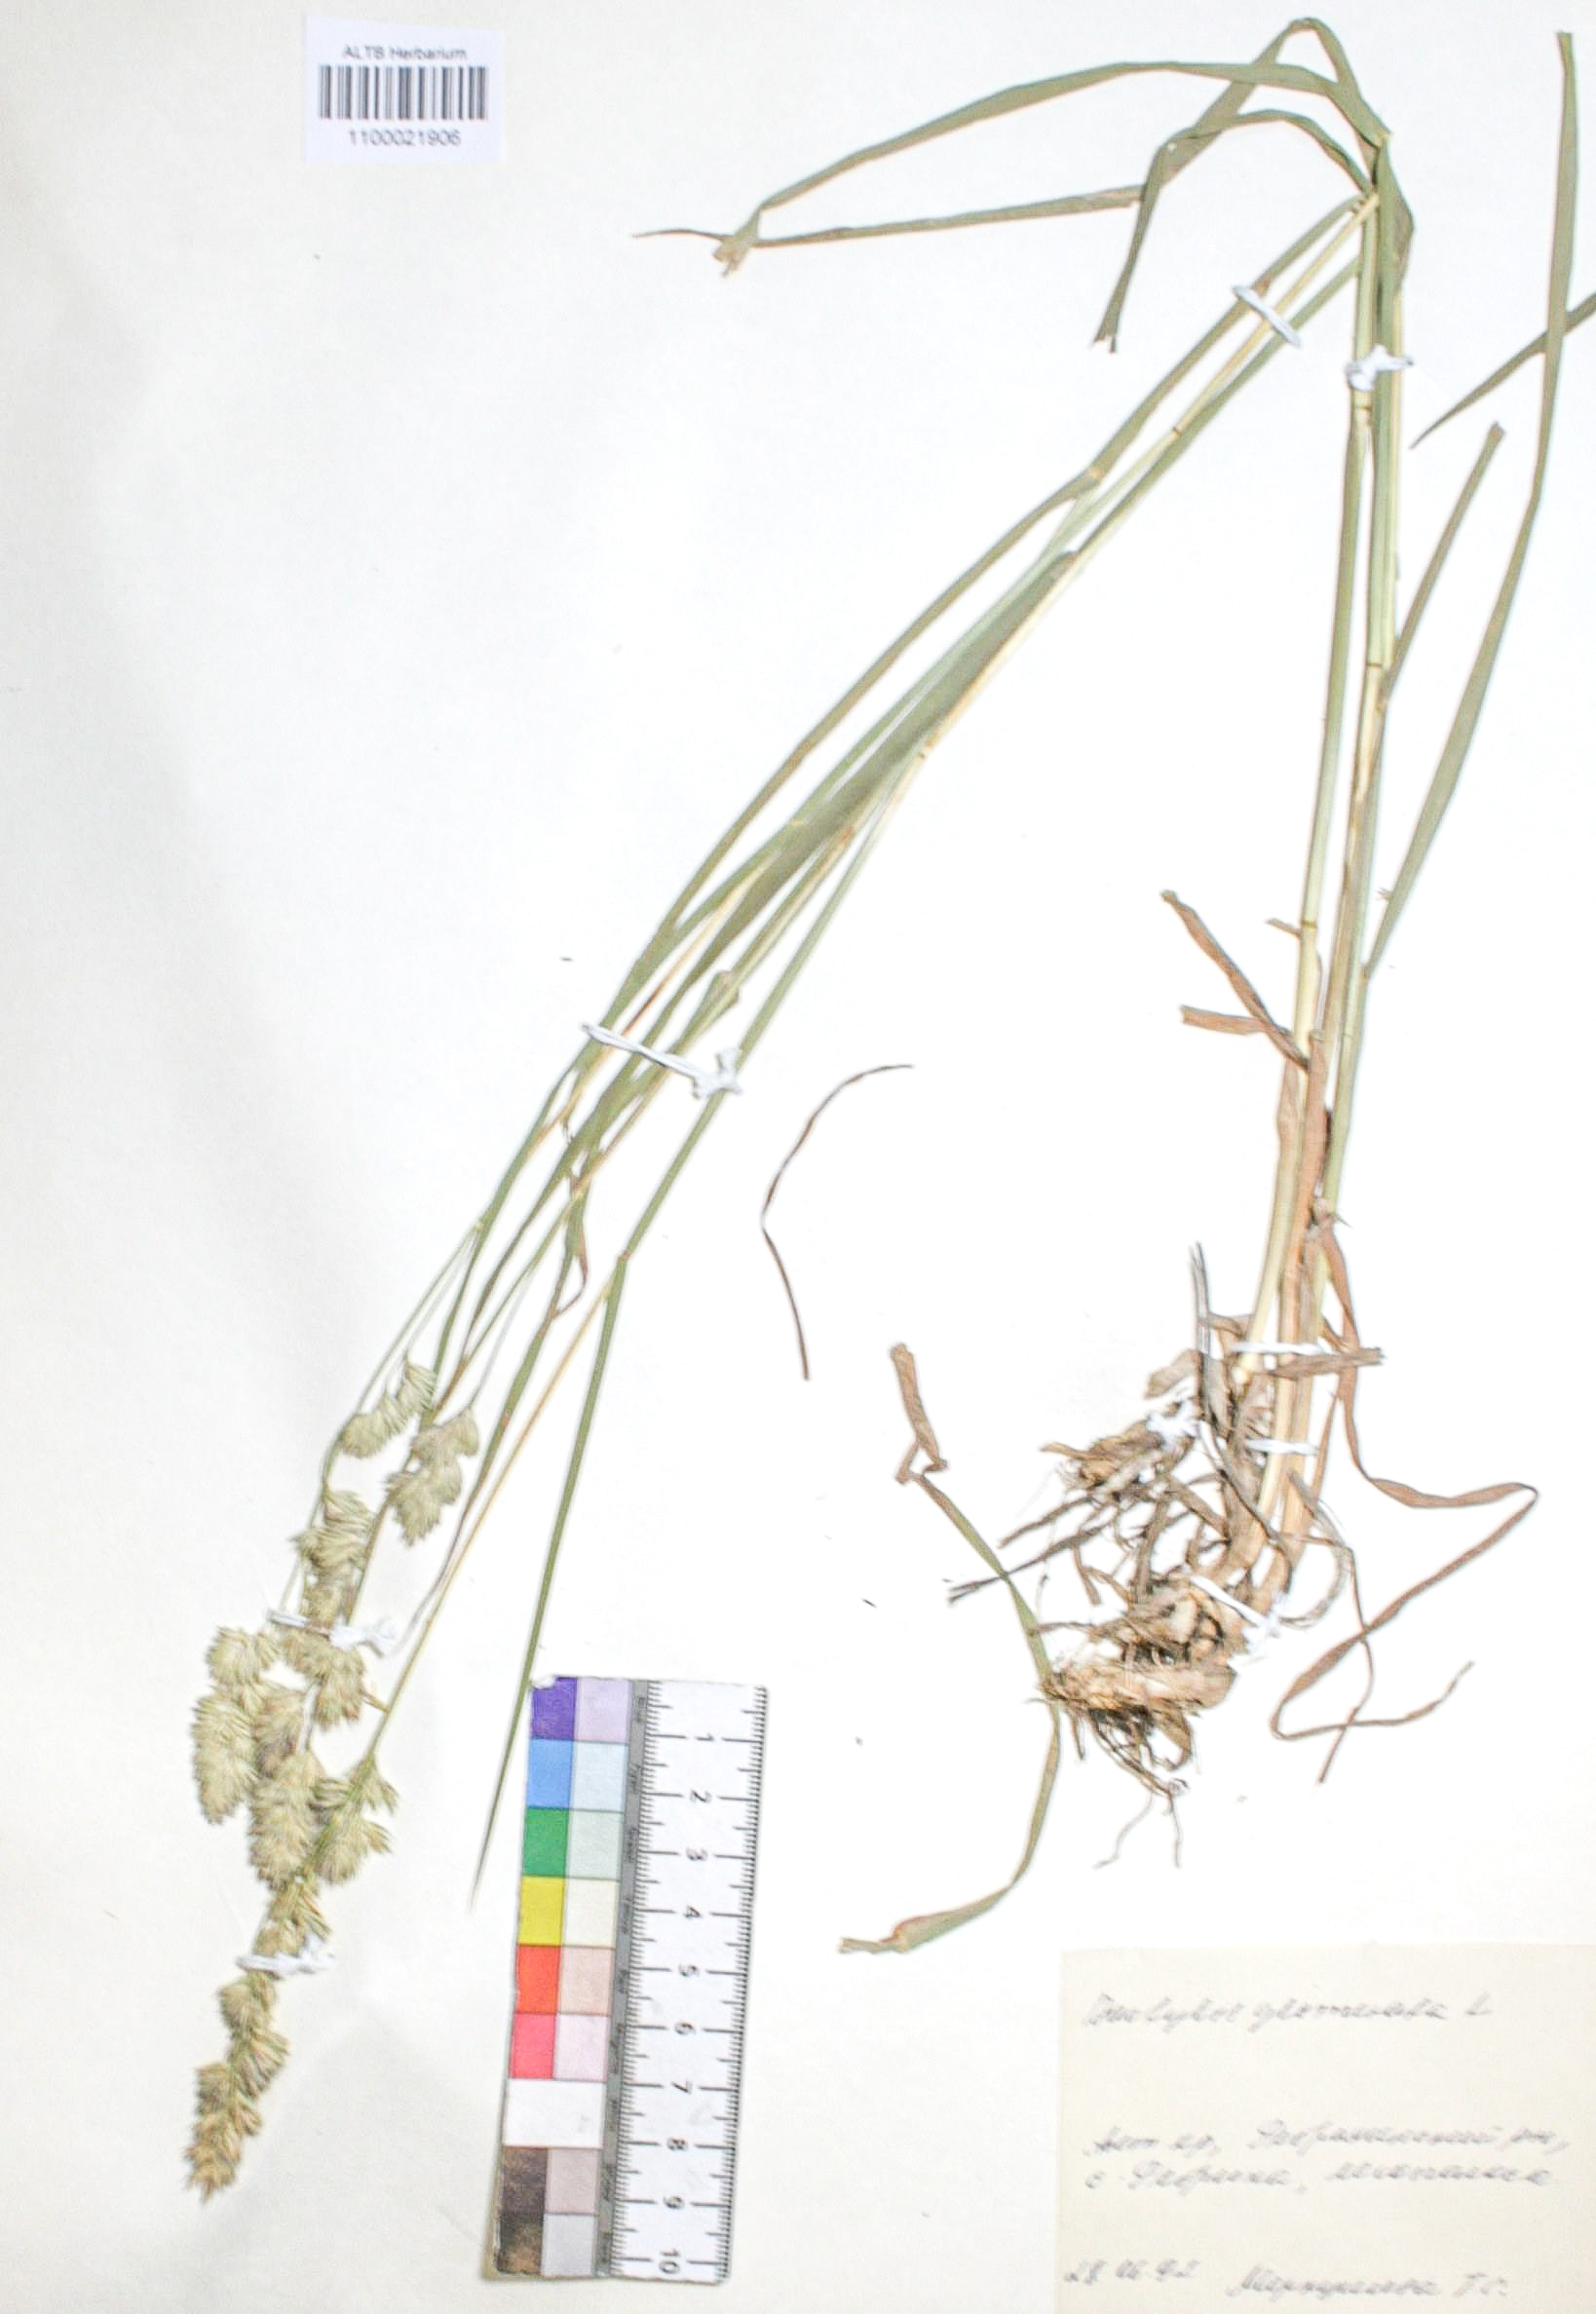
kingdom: Plantae
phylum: Tracheophyta
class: Liliopsida
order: Poales
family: Poaceae
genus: Dactylis
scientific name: Dactylis glomerata
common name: Orchardgrass
